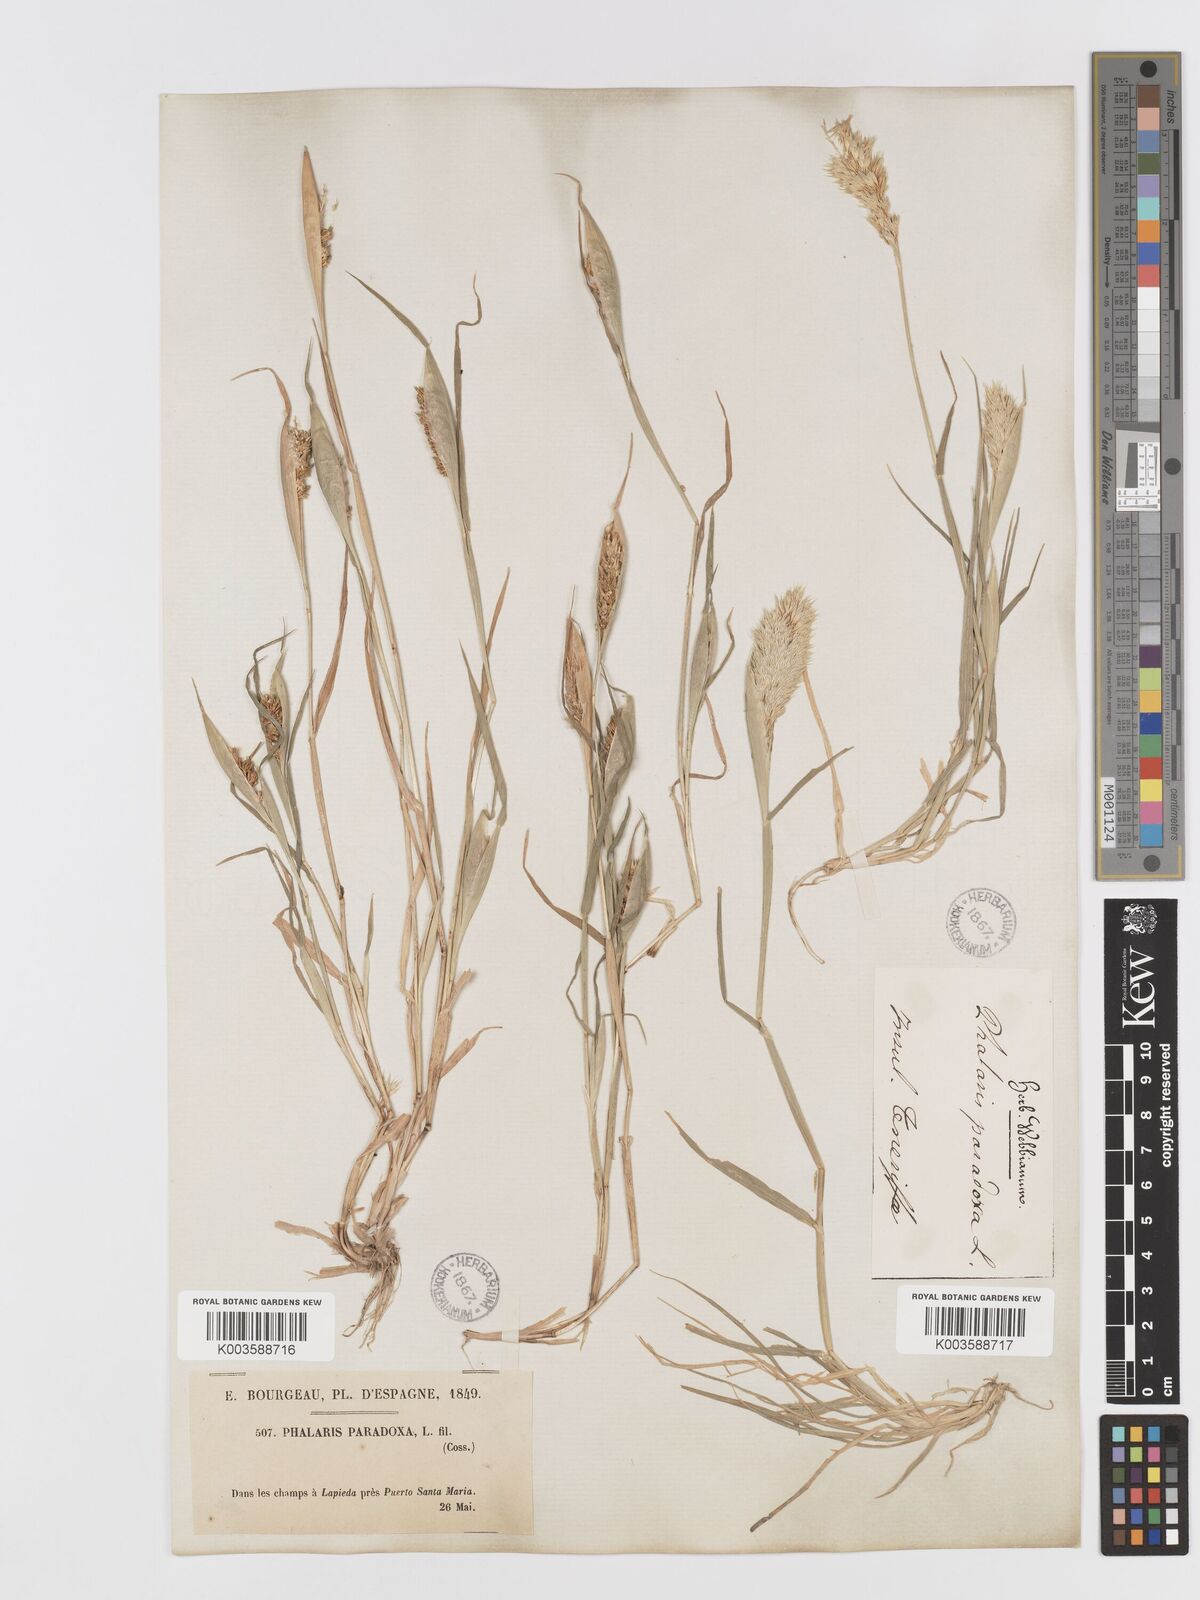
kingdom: Plantae
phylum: Tracheophyta
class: Liliopsida
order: Poales
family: Poaceae
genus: Phalaris
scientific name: Phalaris paradoxa
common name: Awned canary-grass
